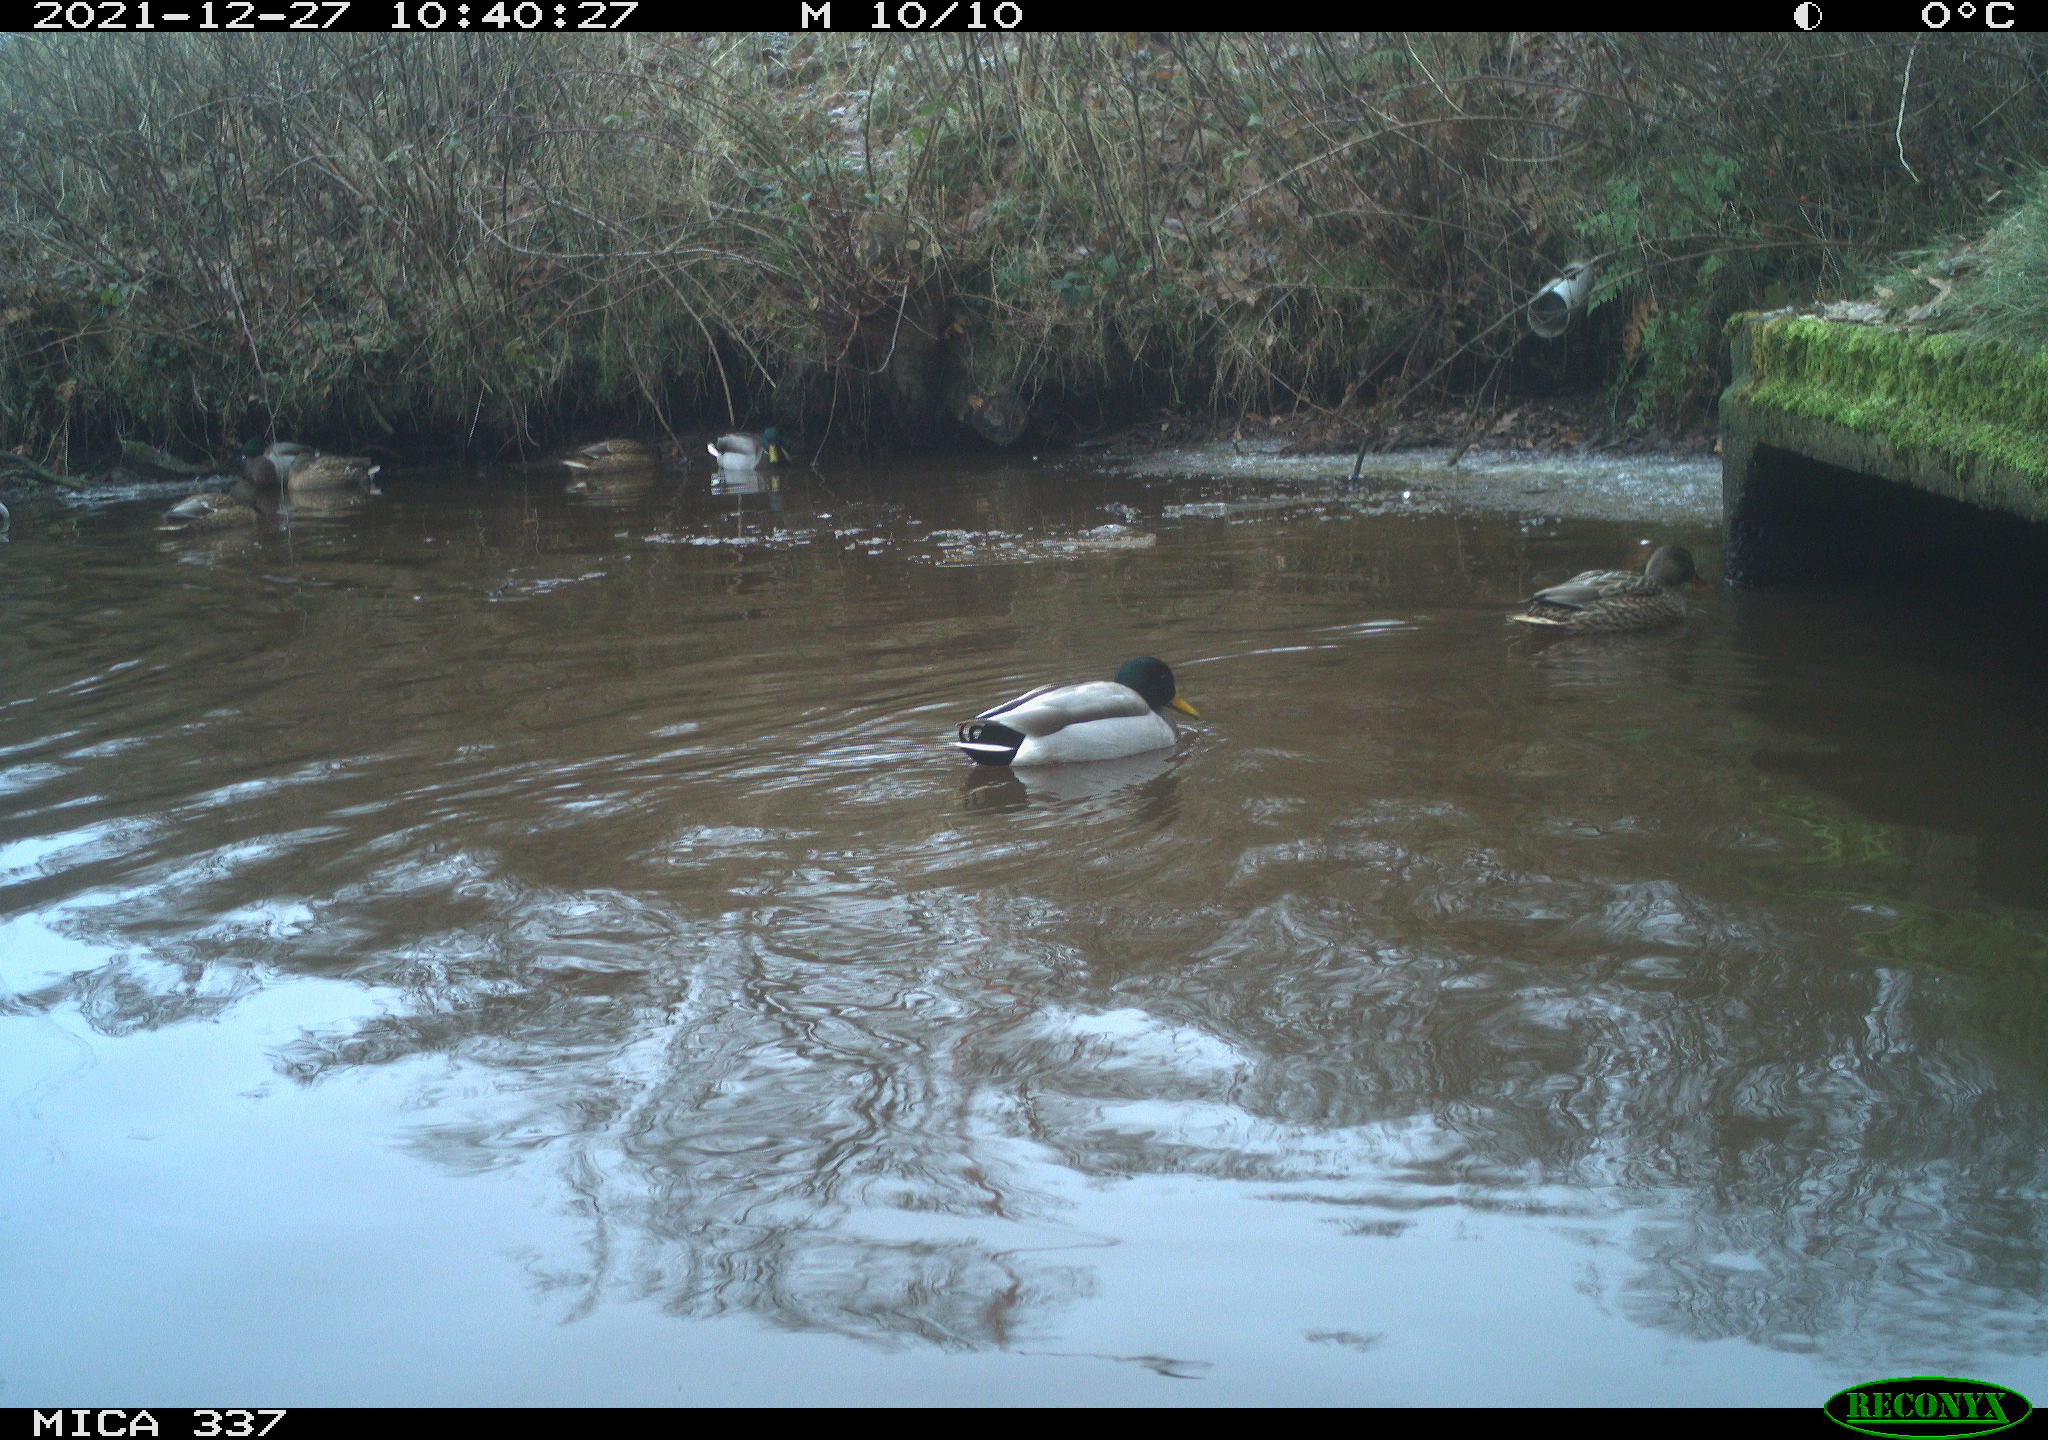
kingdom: Animalia
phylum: Chordata
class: Aves
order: Anseriformes
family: Anatidae
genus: Anas
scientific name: Anas platyrhynchos
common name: Mallard
